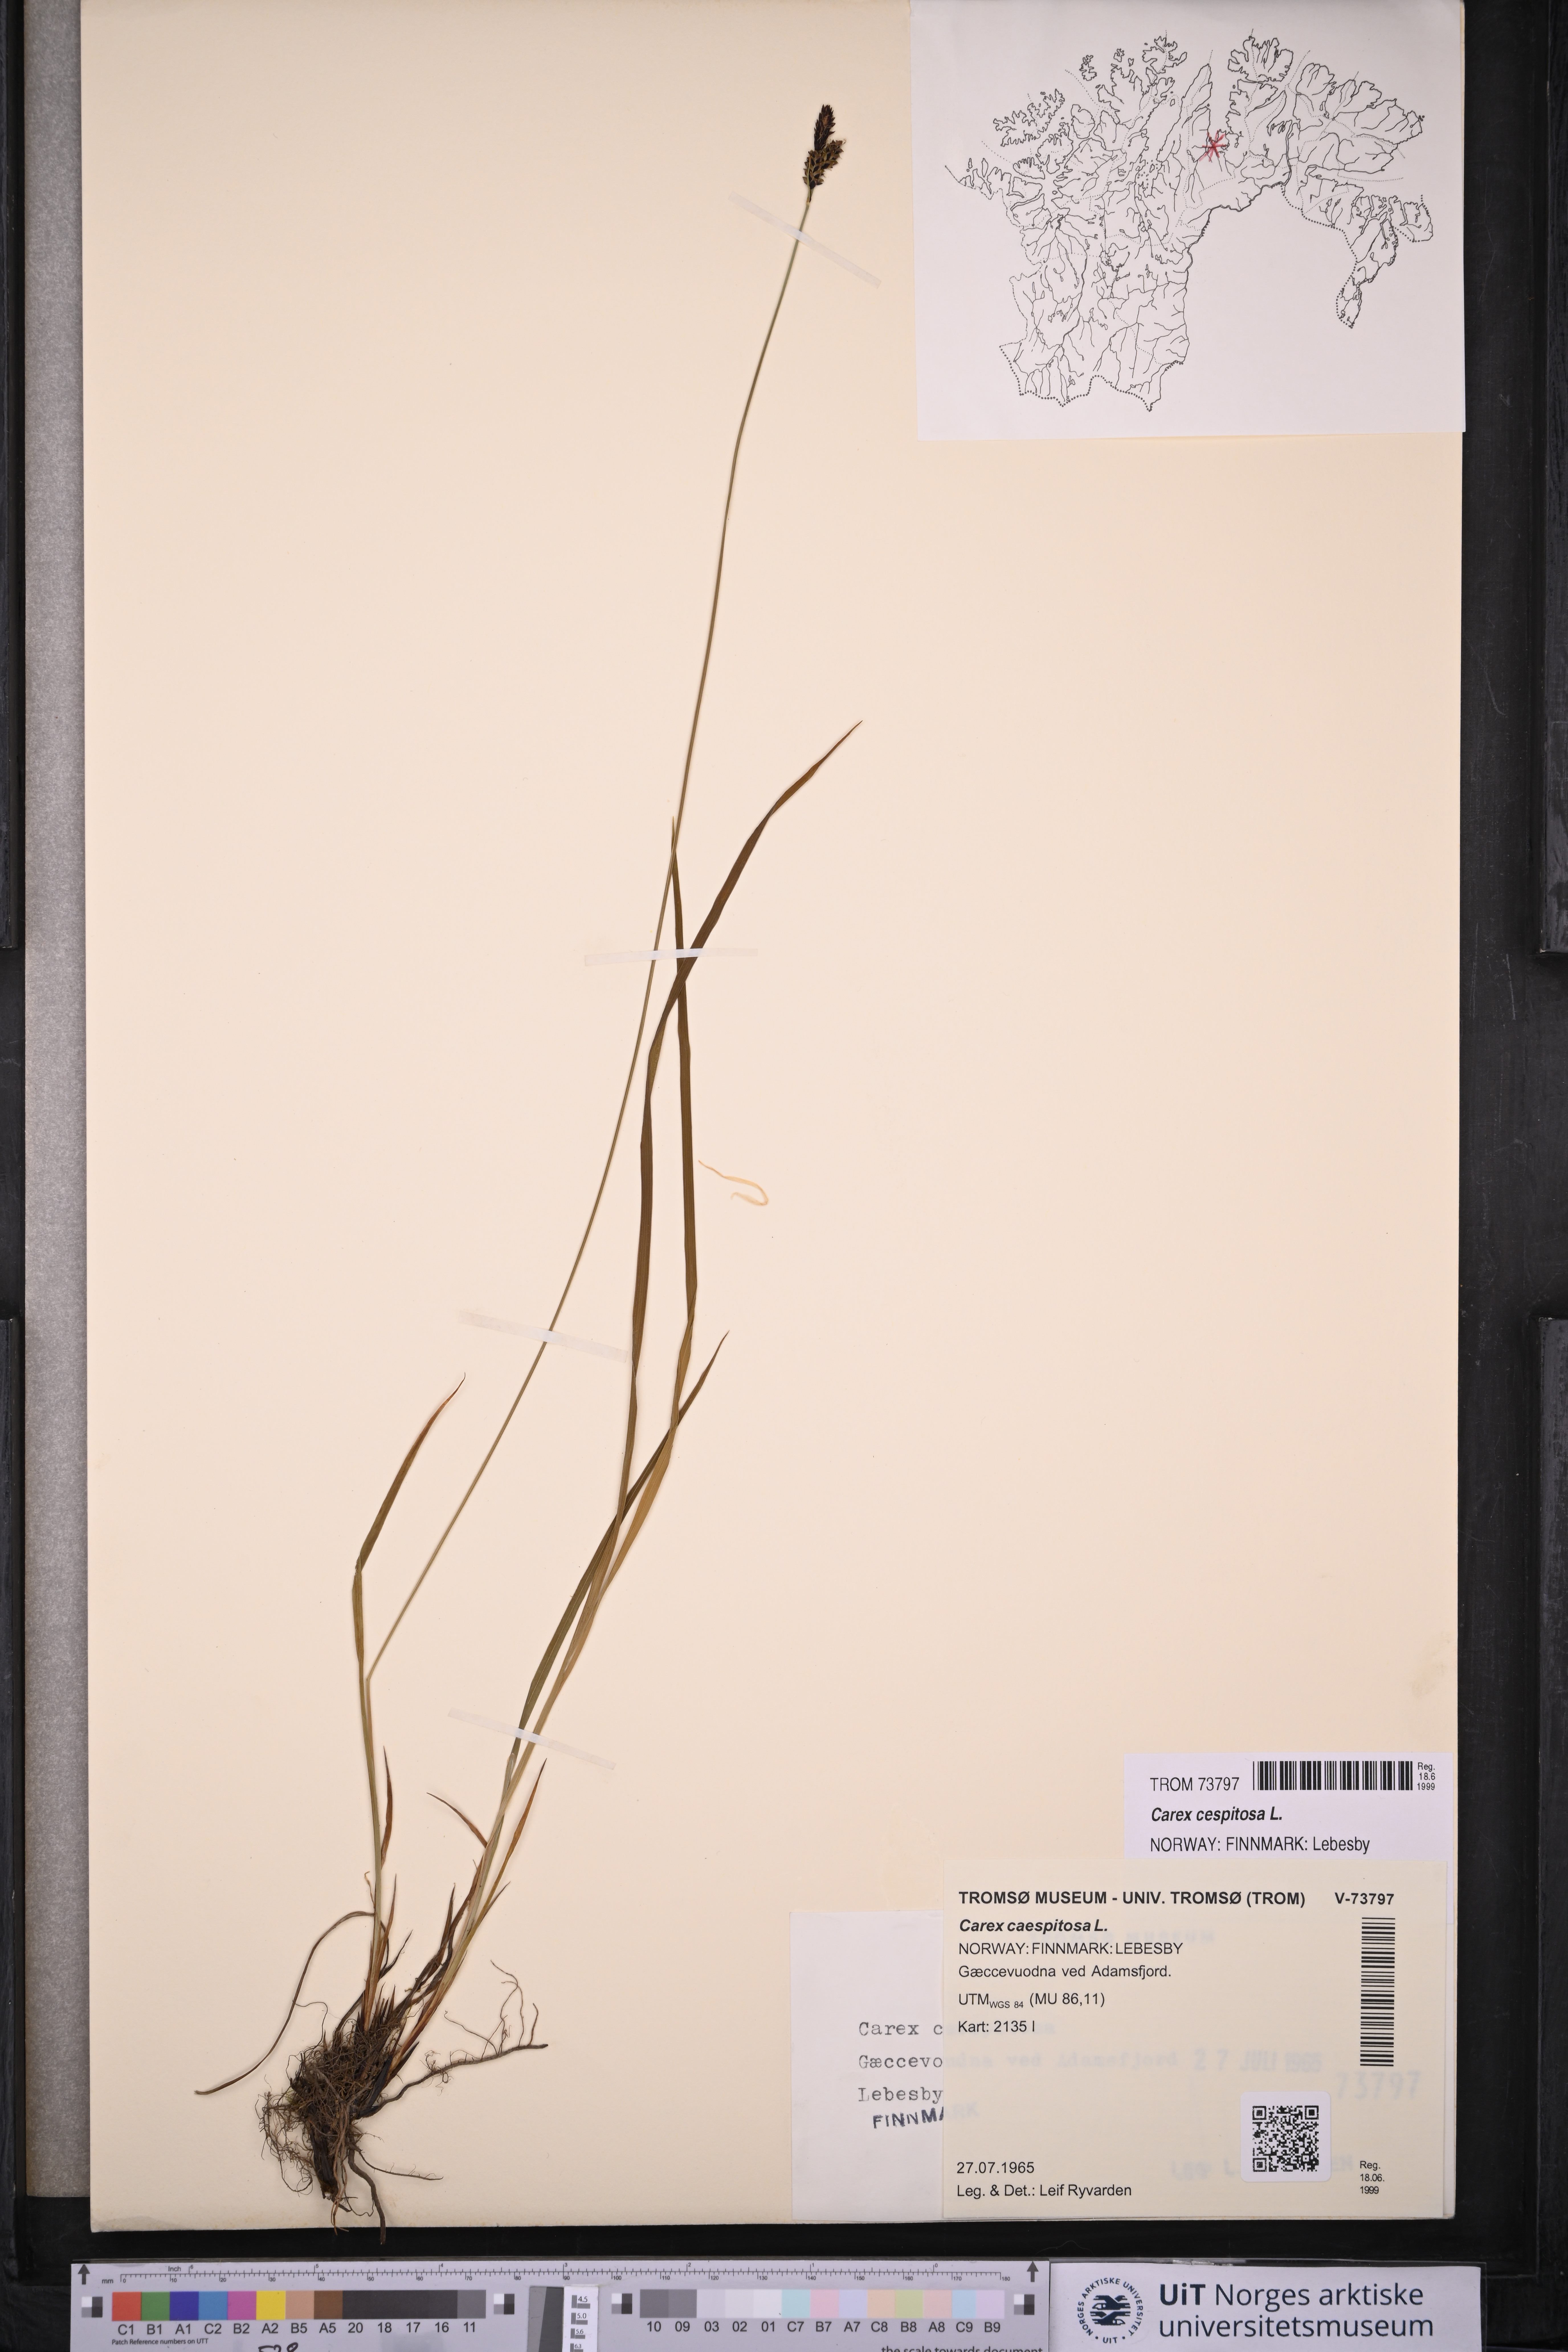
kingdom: Plantae
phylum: Tracheophyta
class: Liliopsida
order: Poales
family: Cyperaceae
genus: Carex
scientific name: Carex cespitosa
